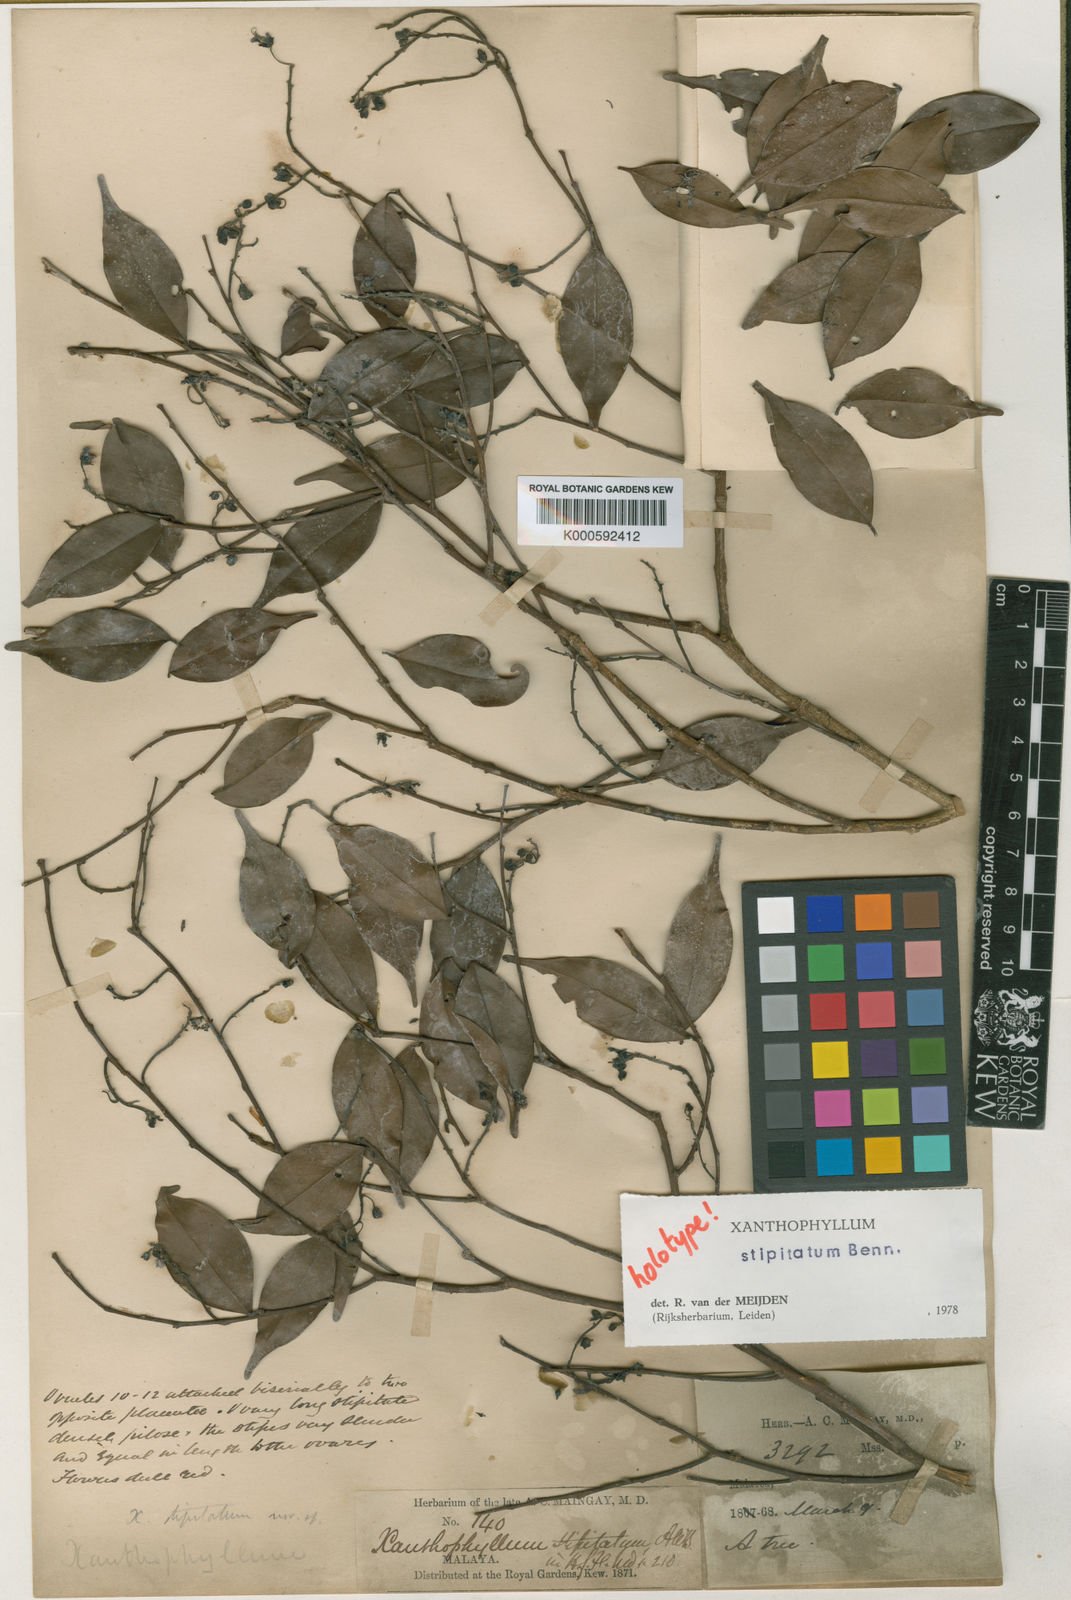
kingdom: Plantae
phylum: Tracheophyta
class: Magnoliopsida
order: Fabales
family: Polygalaceae
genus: Xanthophyllum
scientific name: Xanthophyllum stipitatum
